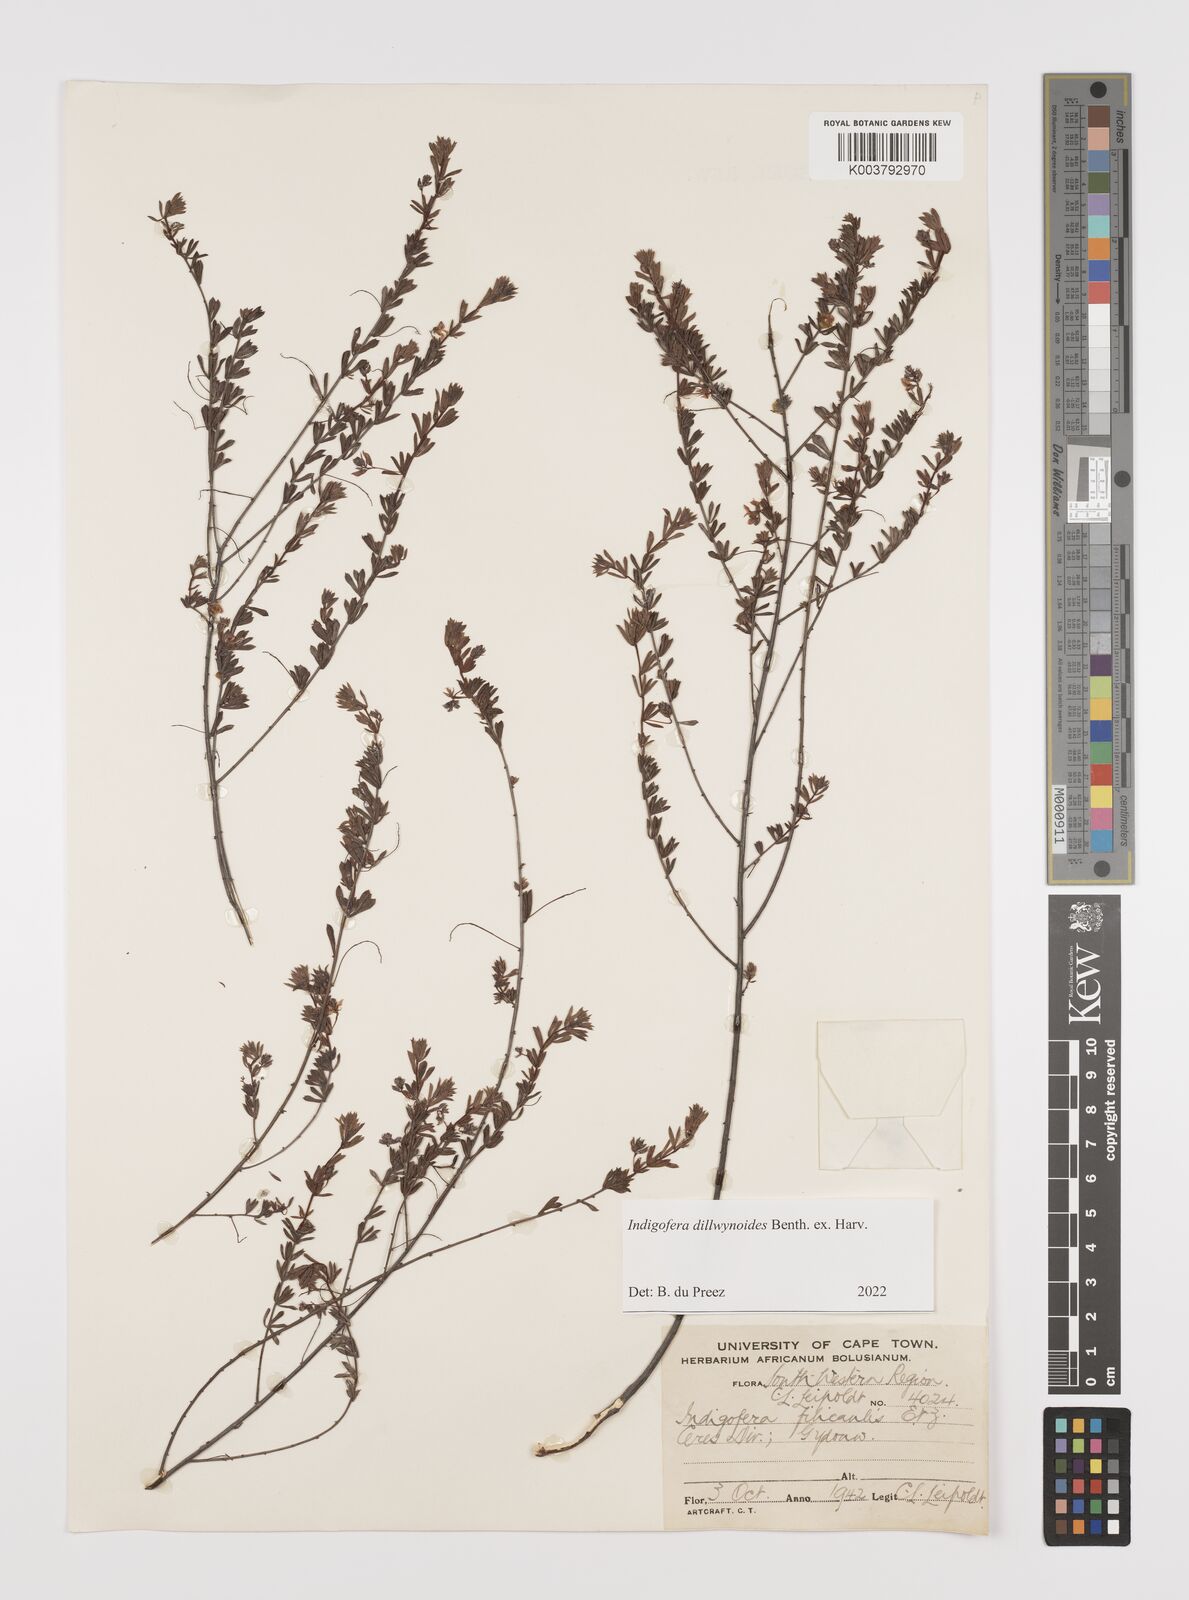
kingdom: Plantae
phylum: Tracheophyta
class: Magnoliopsida
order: Fabales
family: Fabaceae
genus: Indigofera
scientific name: Indigofera dillwynioides
